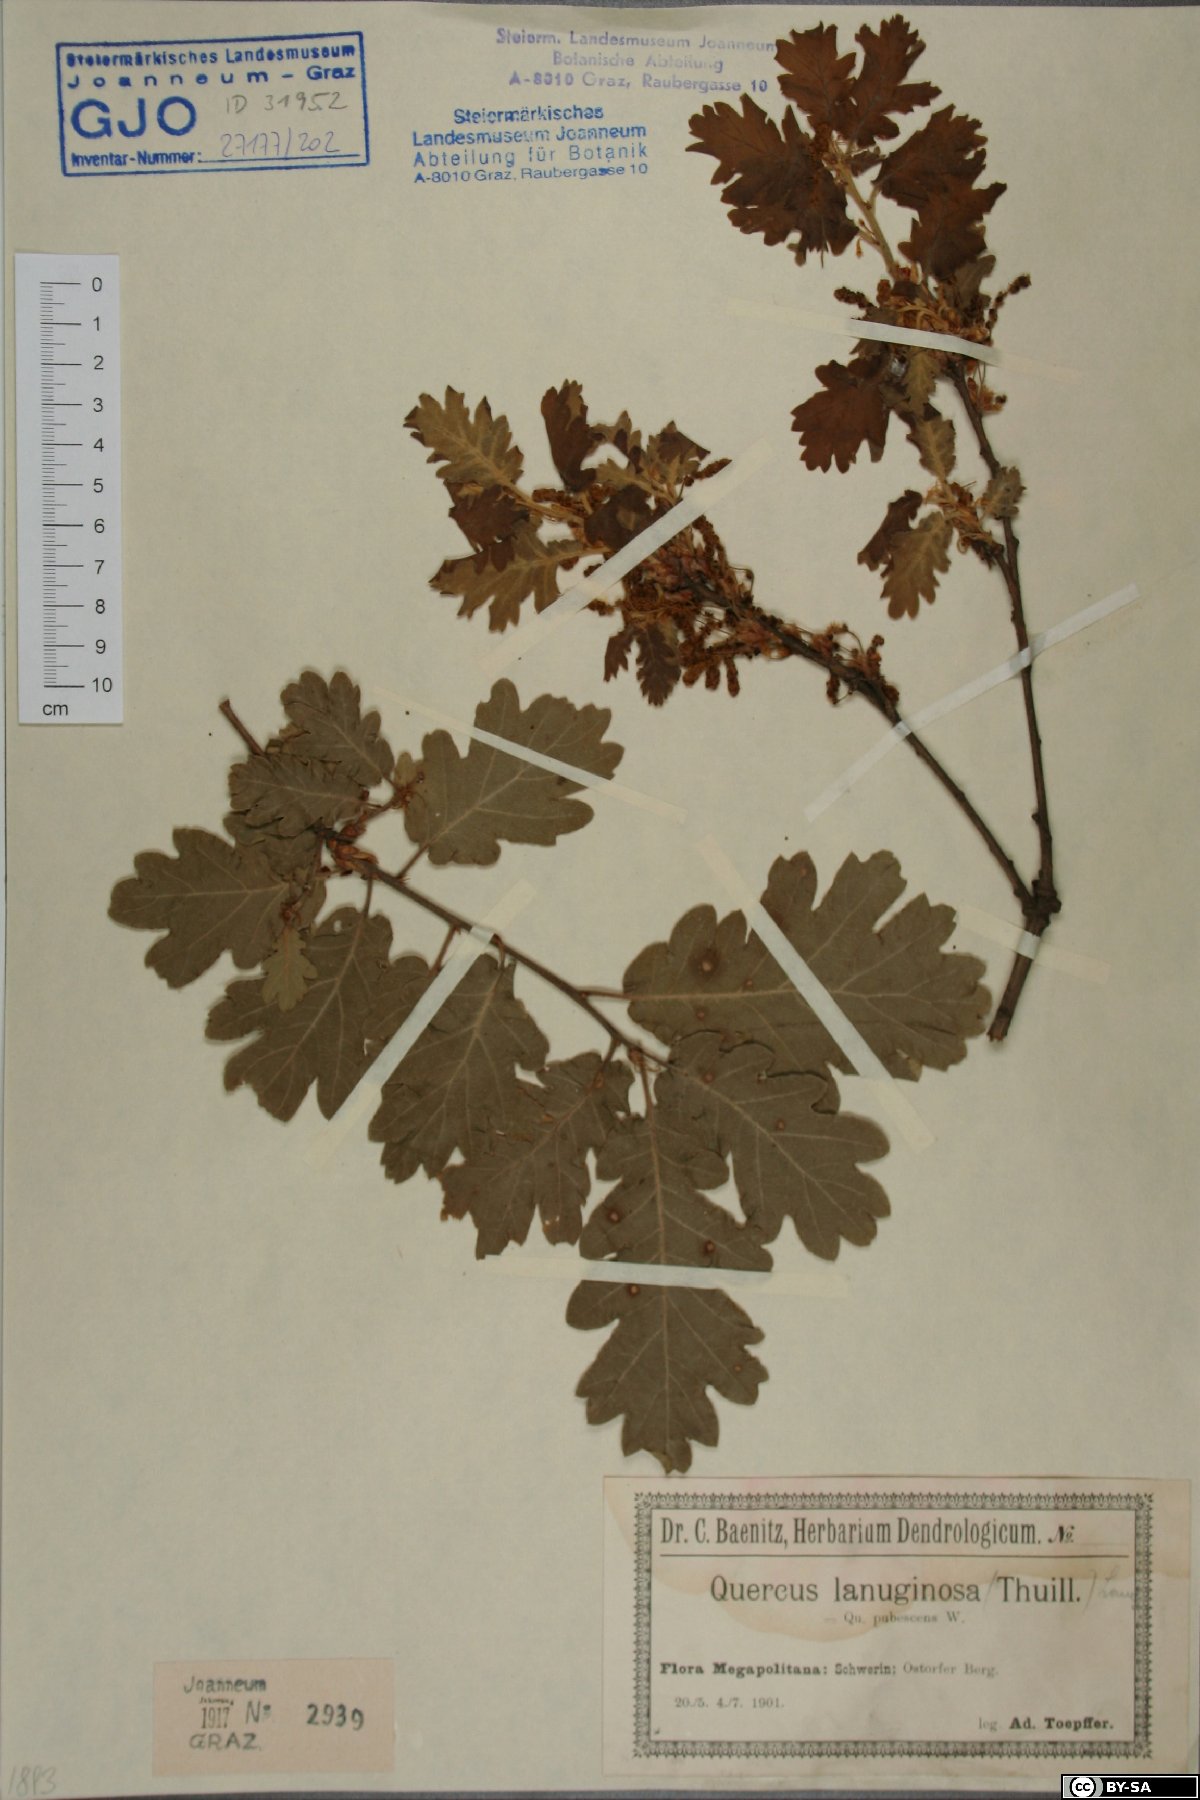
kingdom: Plantae
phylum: Tracheophyta
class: Magnoliopsida
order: Fagales
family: Fagaceae
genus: Quercus
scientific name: Quercus pubescens
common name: Downy oak
